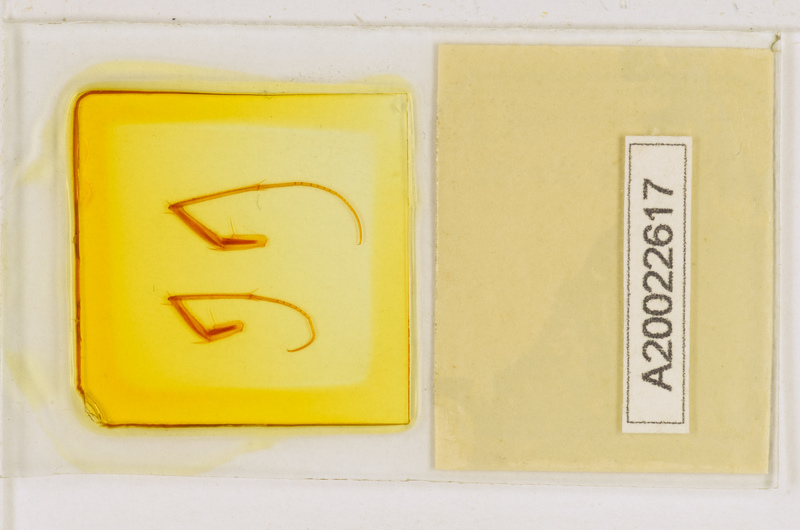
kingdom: Animalia
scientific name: Animalia
